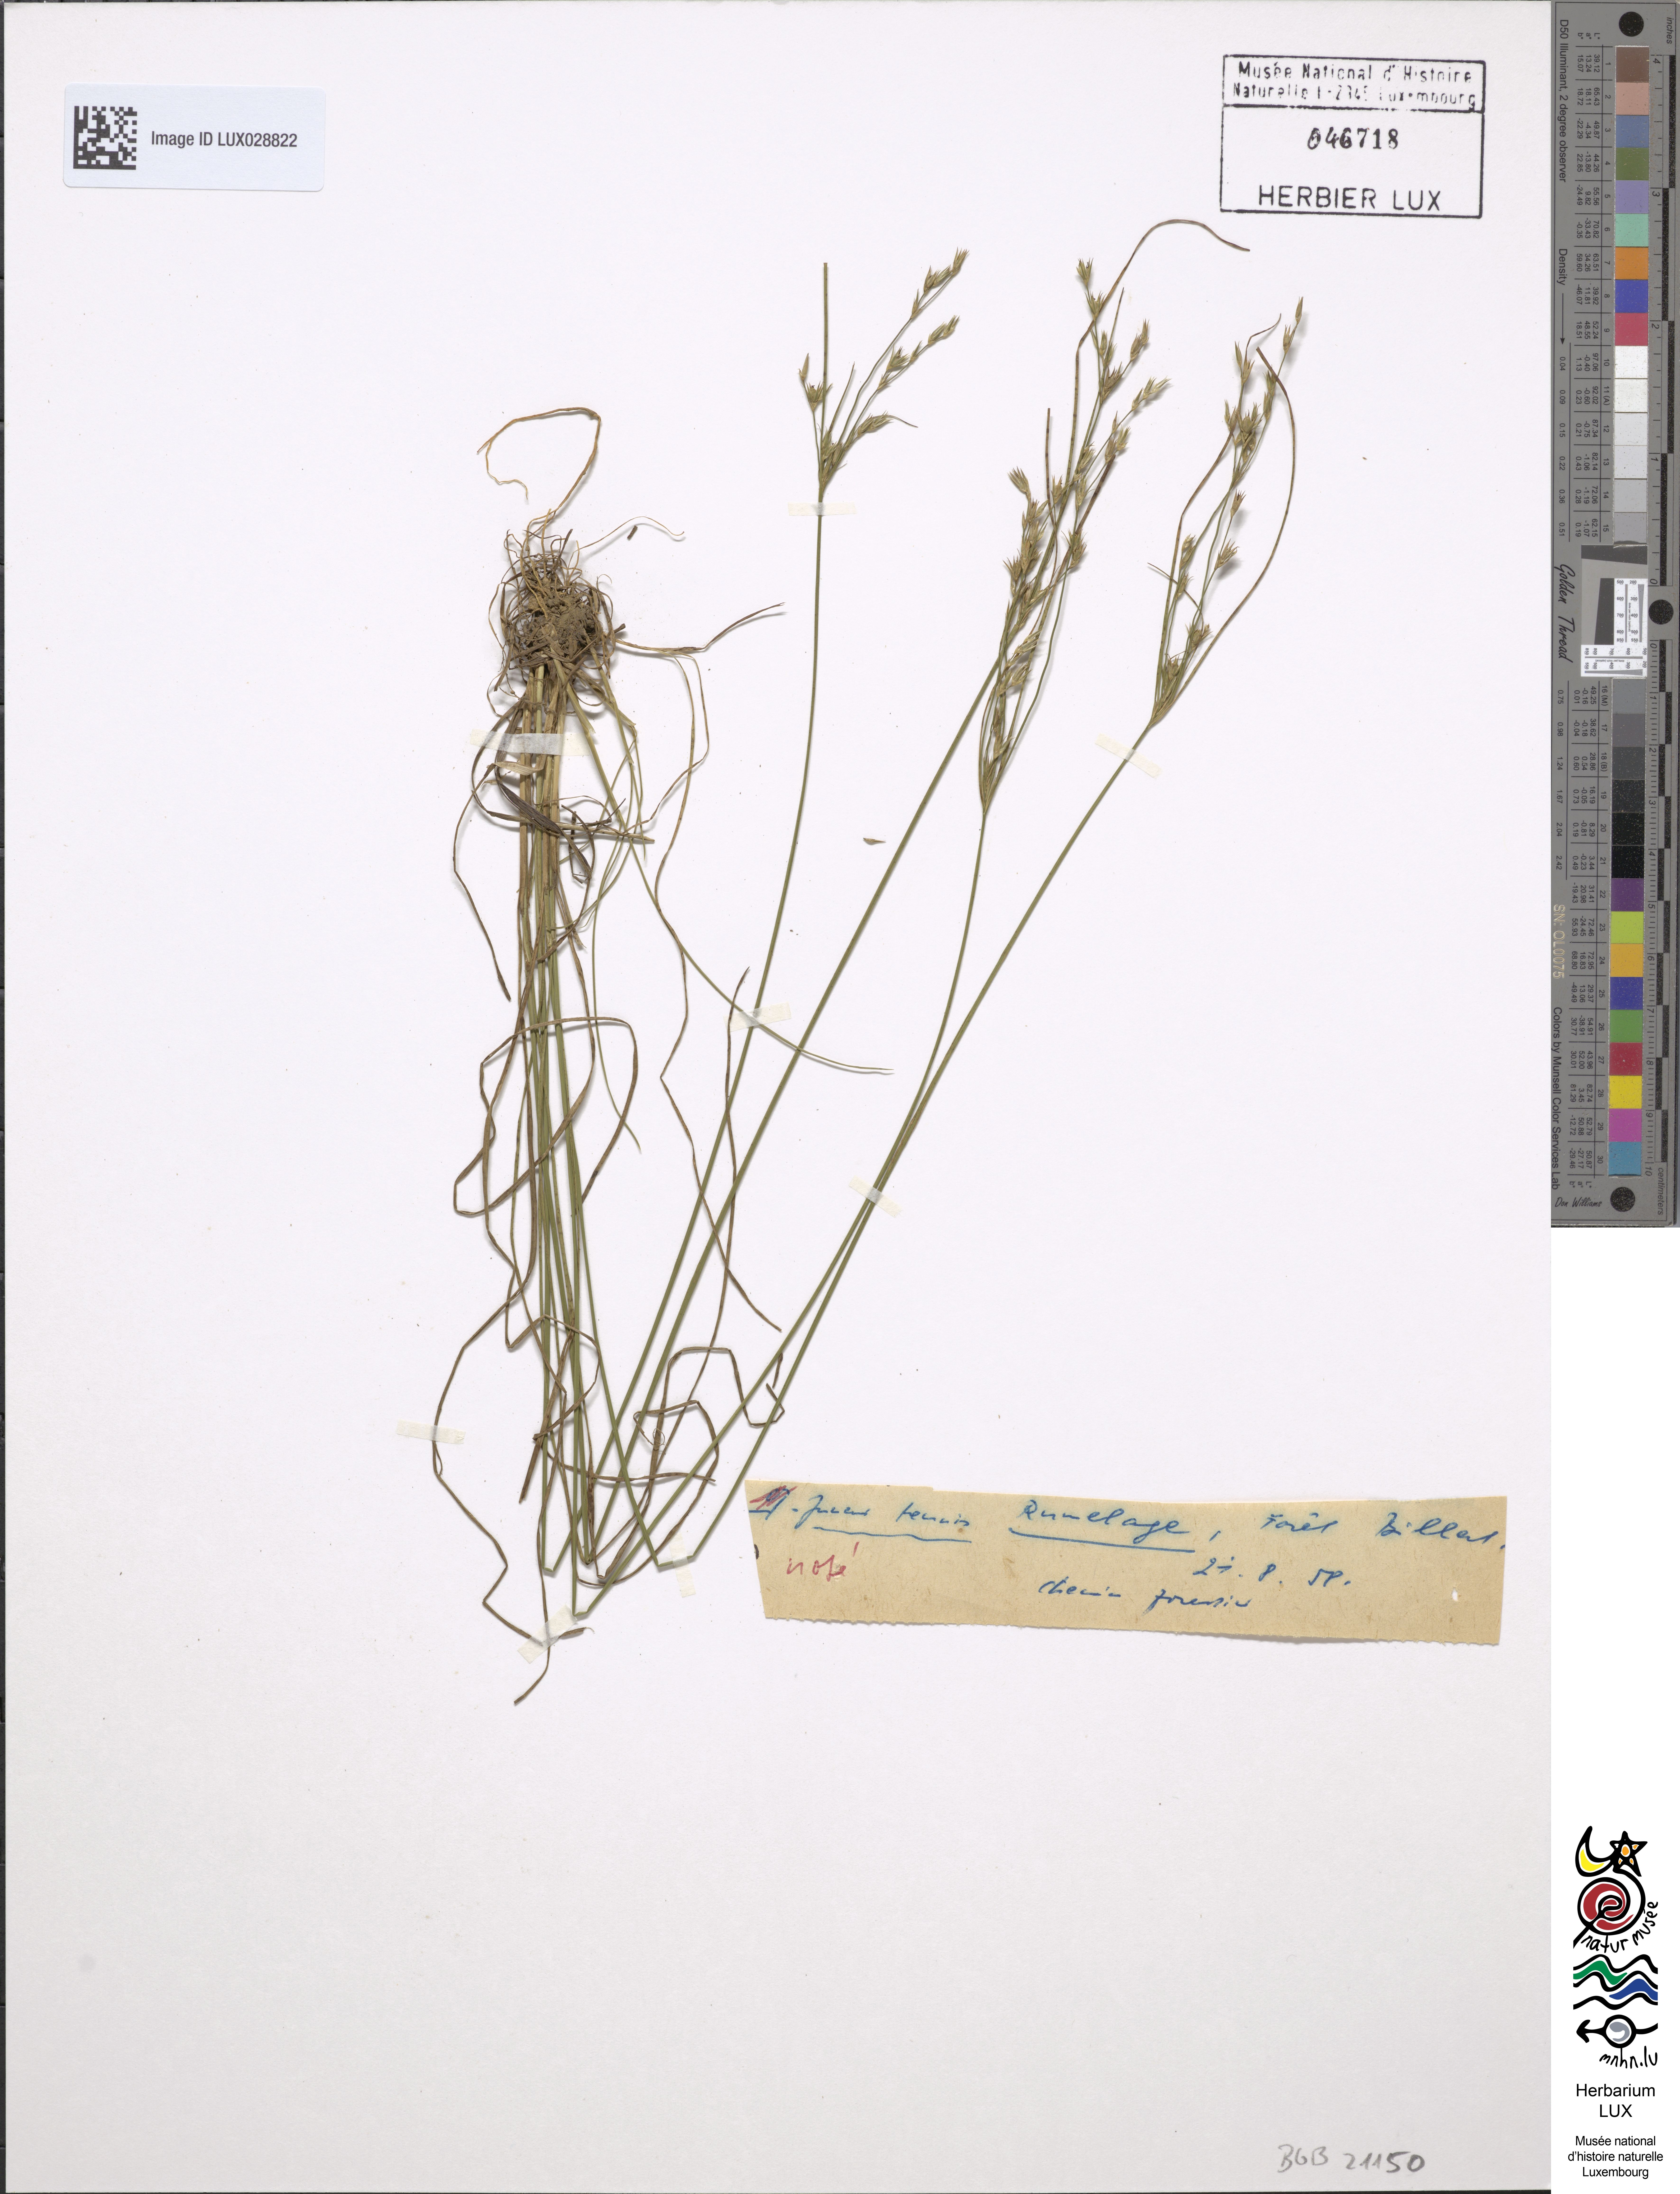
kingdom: Plantae
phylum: Tracheophyta
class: Liliopsida
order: Poales
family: Juncaceae
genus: Juncus
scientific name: Juncus tenuis
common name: Slender rush
